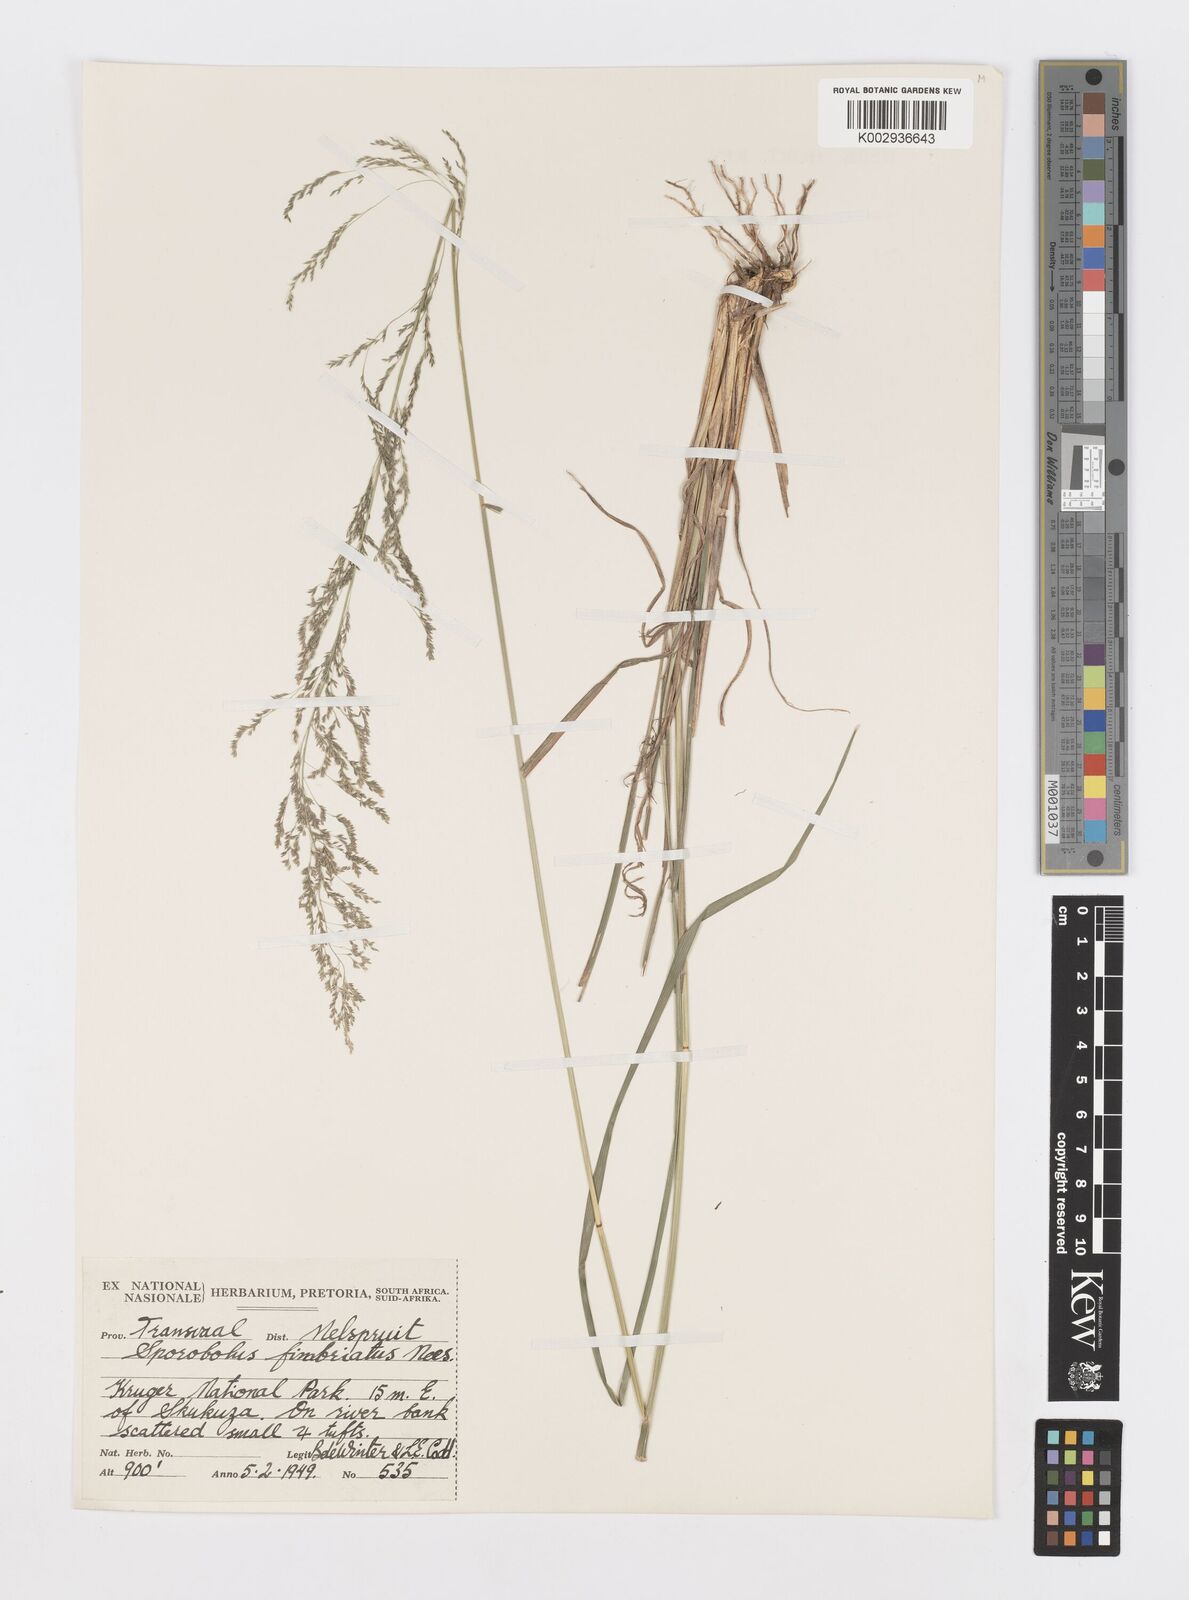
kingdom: Plantae
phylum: Tracheophyta
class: Liliopsida
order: Poales
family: Poaceae
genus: Sporobolus
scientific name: Sporobolus fimbriatus
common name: Fringed dropseed
